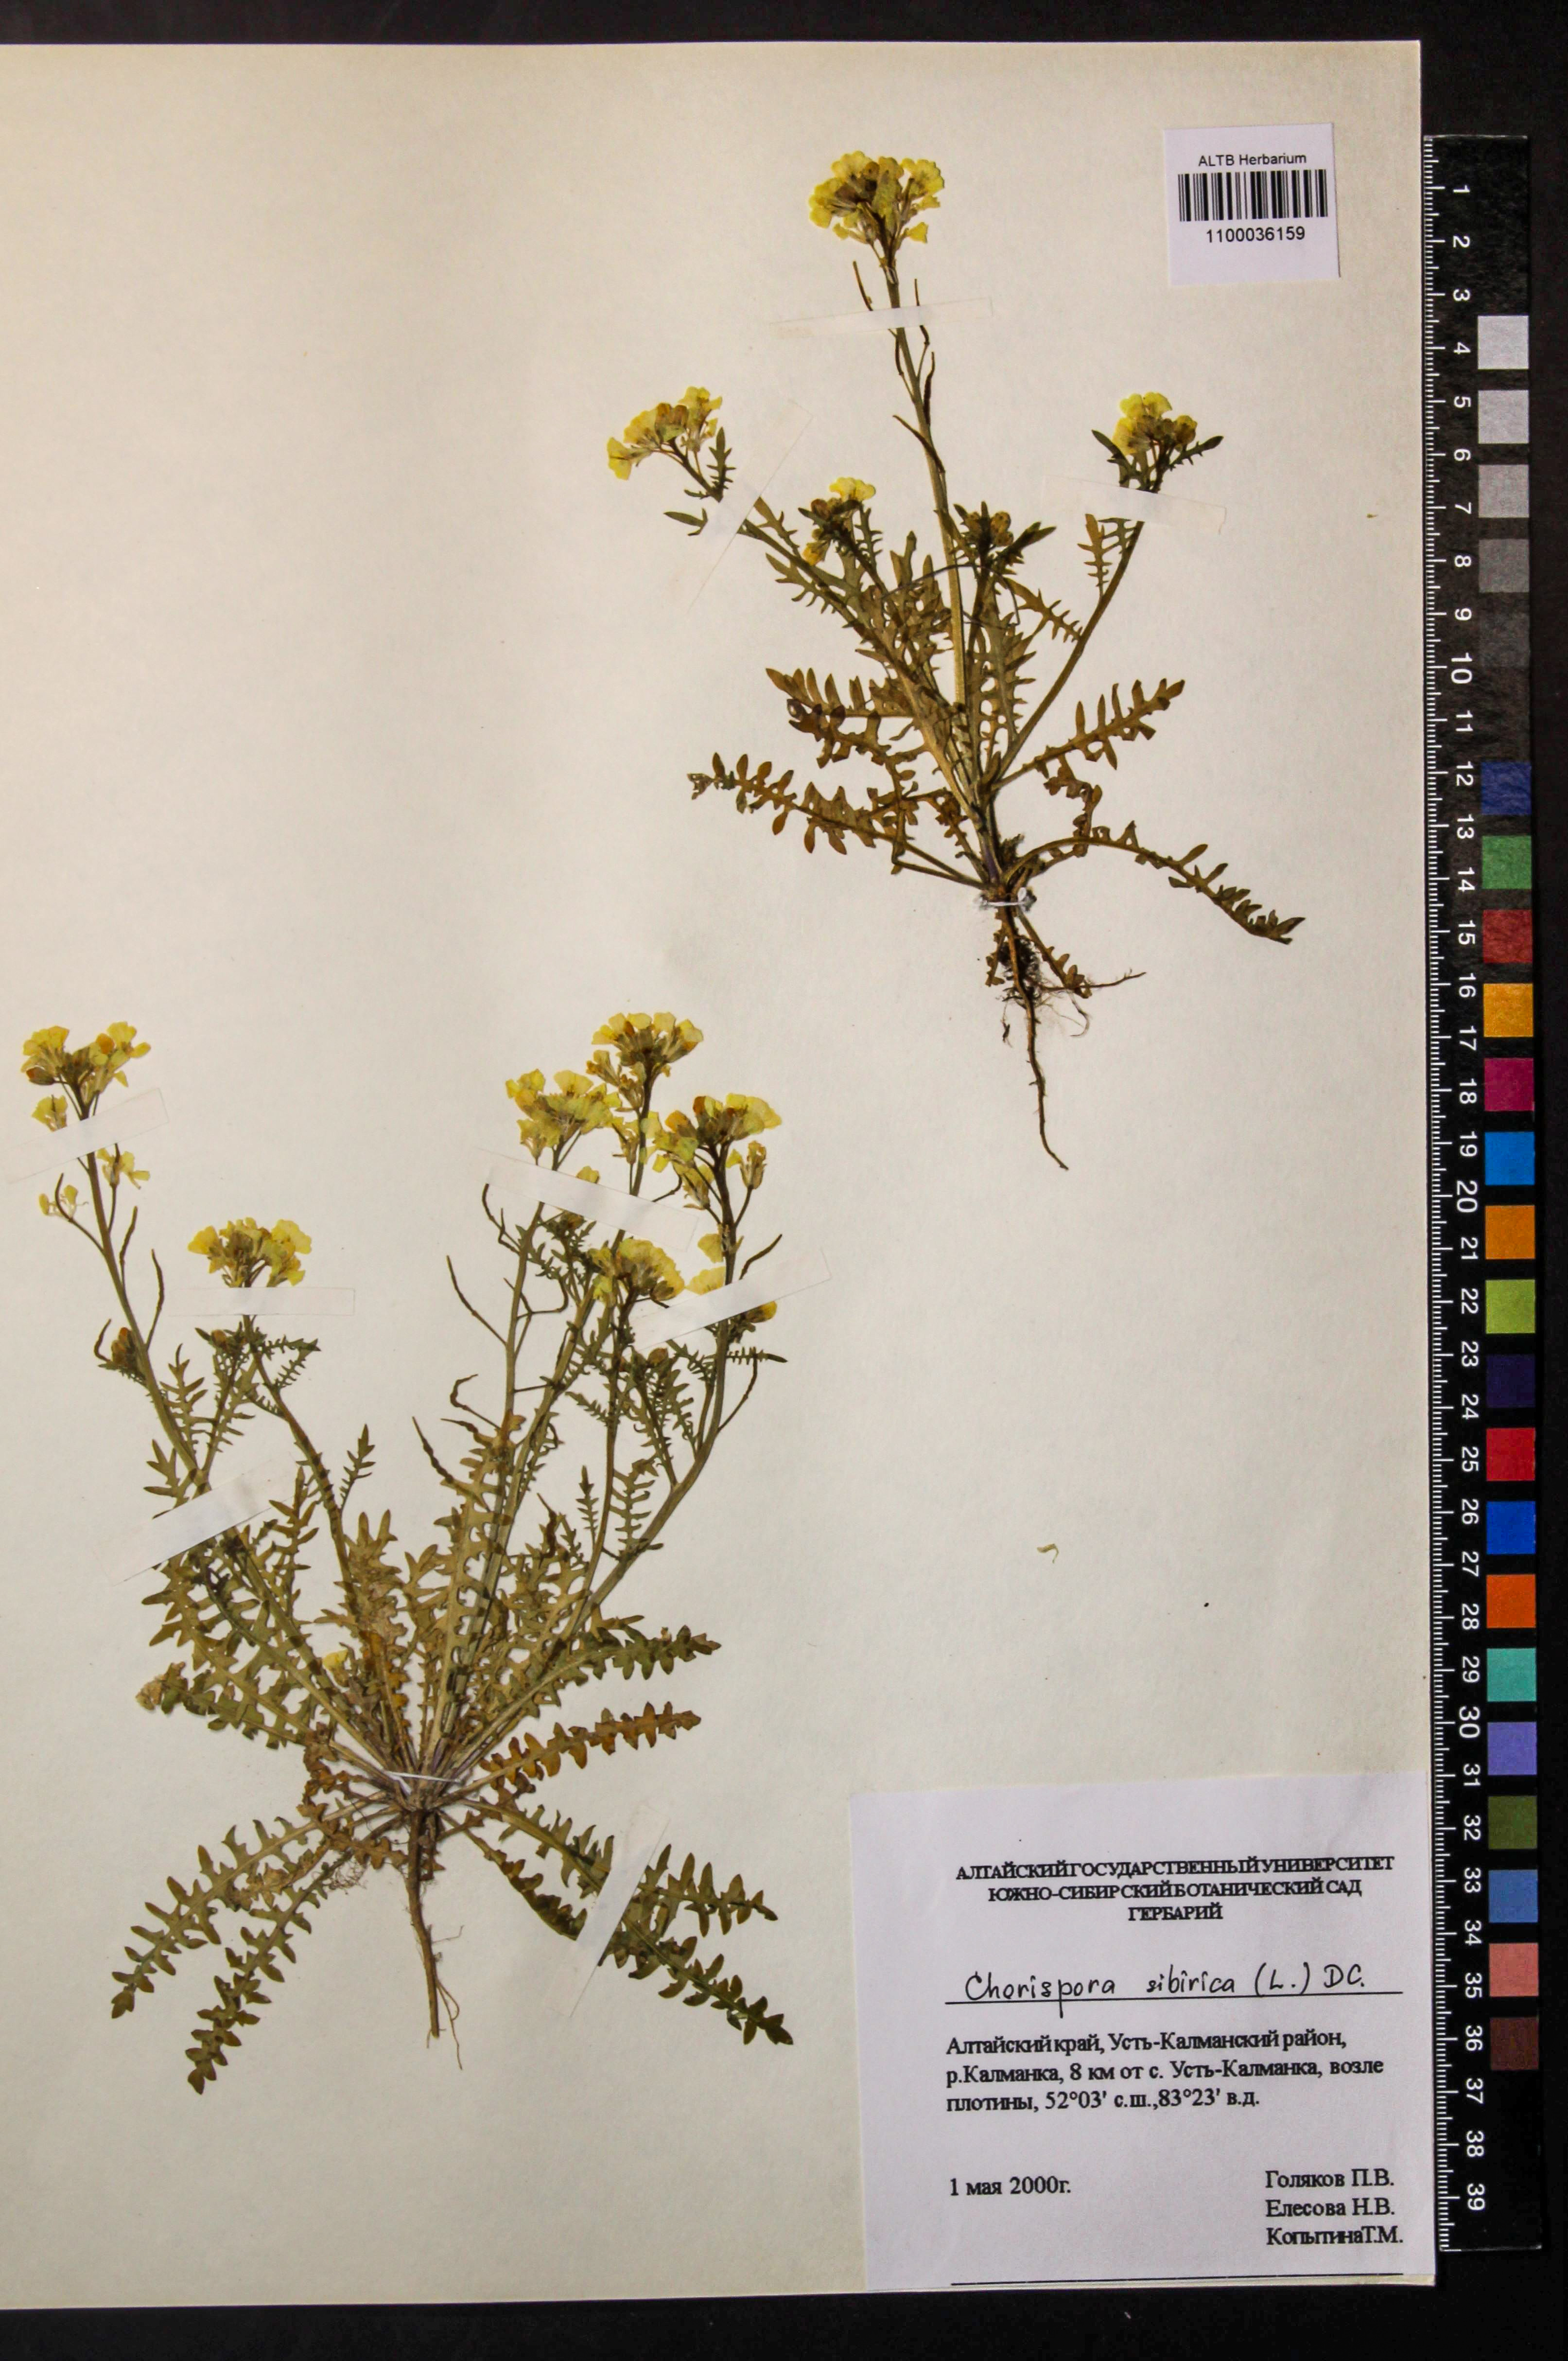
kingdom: Plantae
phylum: Tracheophyta
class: Magnoliopsida
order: Brassicales
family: Brassicaceae
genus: Chorispora
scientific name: Chorispora sibirica
